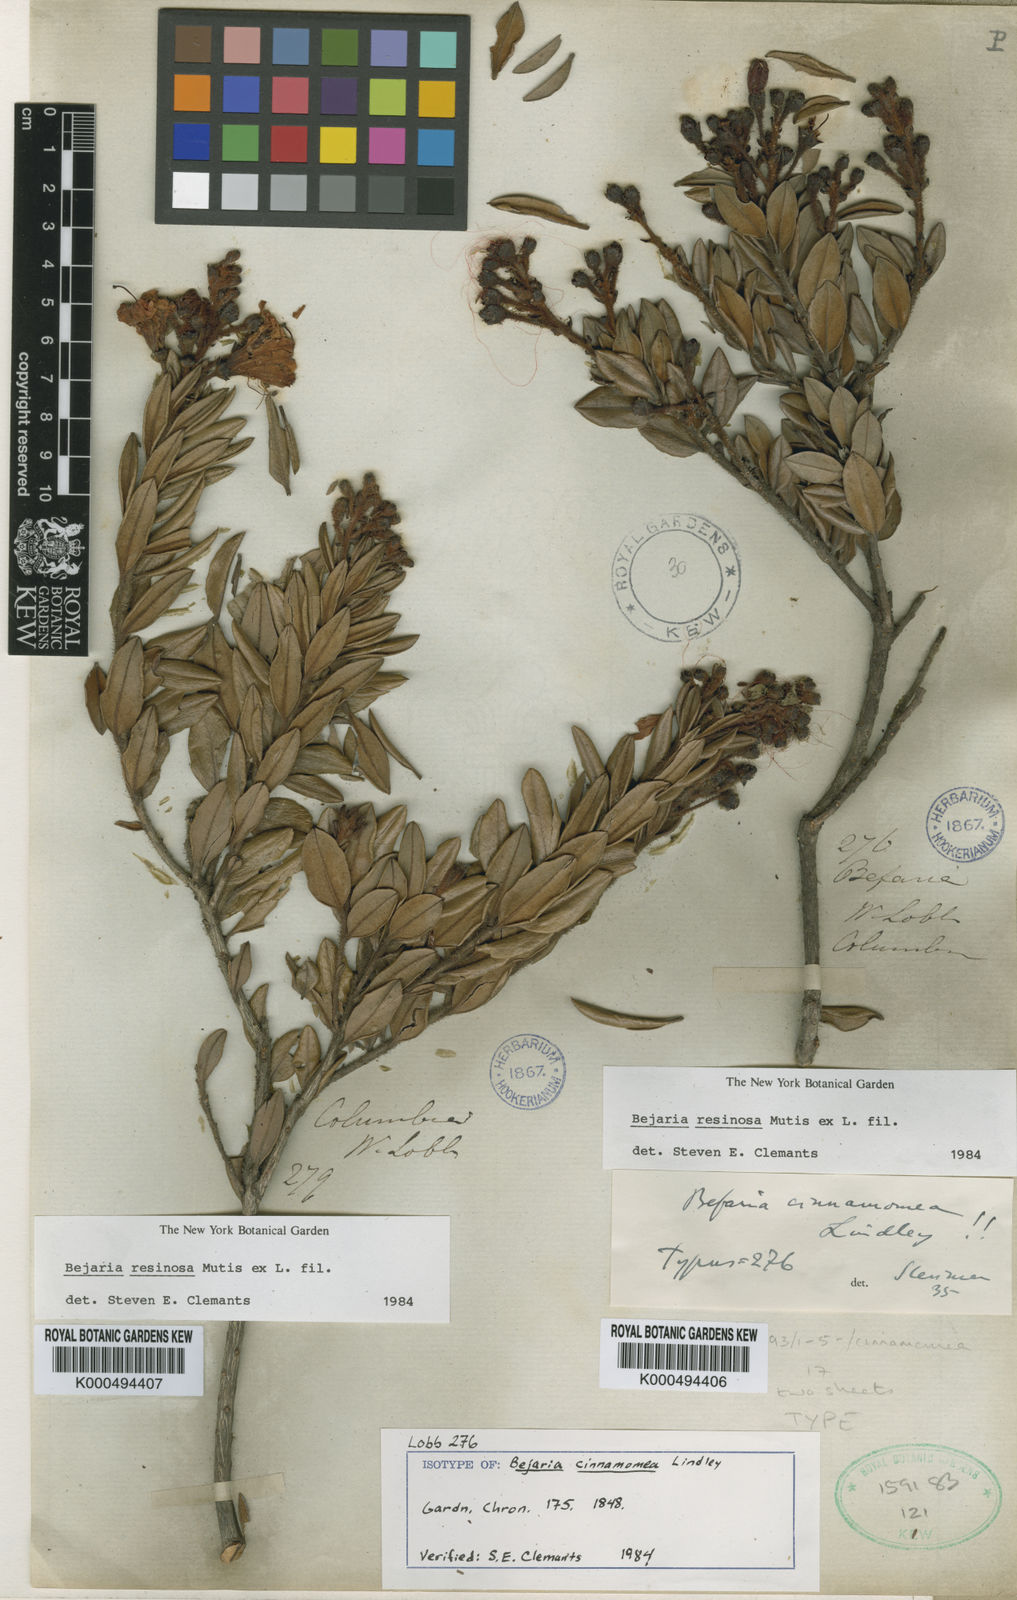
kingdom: Plantae
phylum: Tracheophyta
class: Magnoliopsida
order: Ericales
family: Ericaceae
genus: Bejaria
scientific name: Bejaria resinosa
